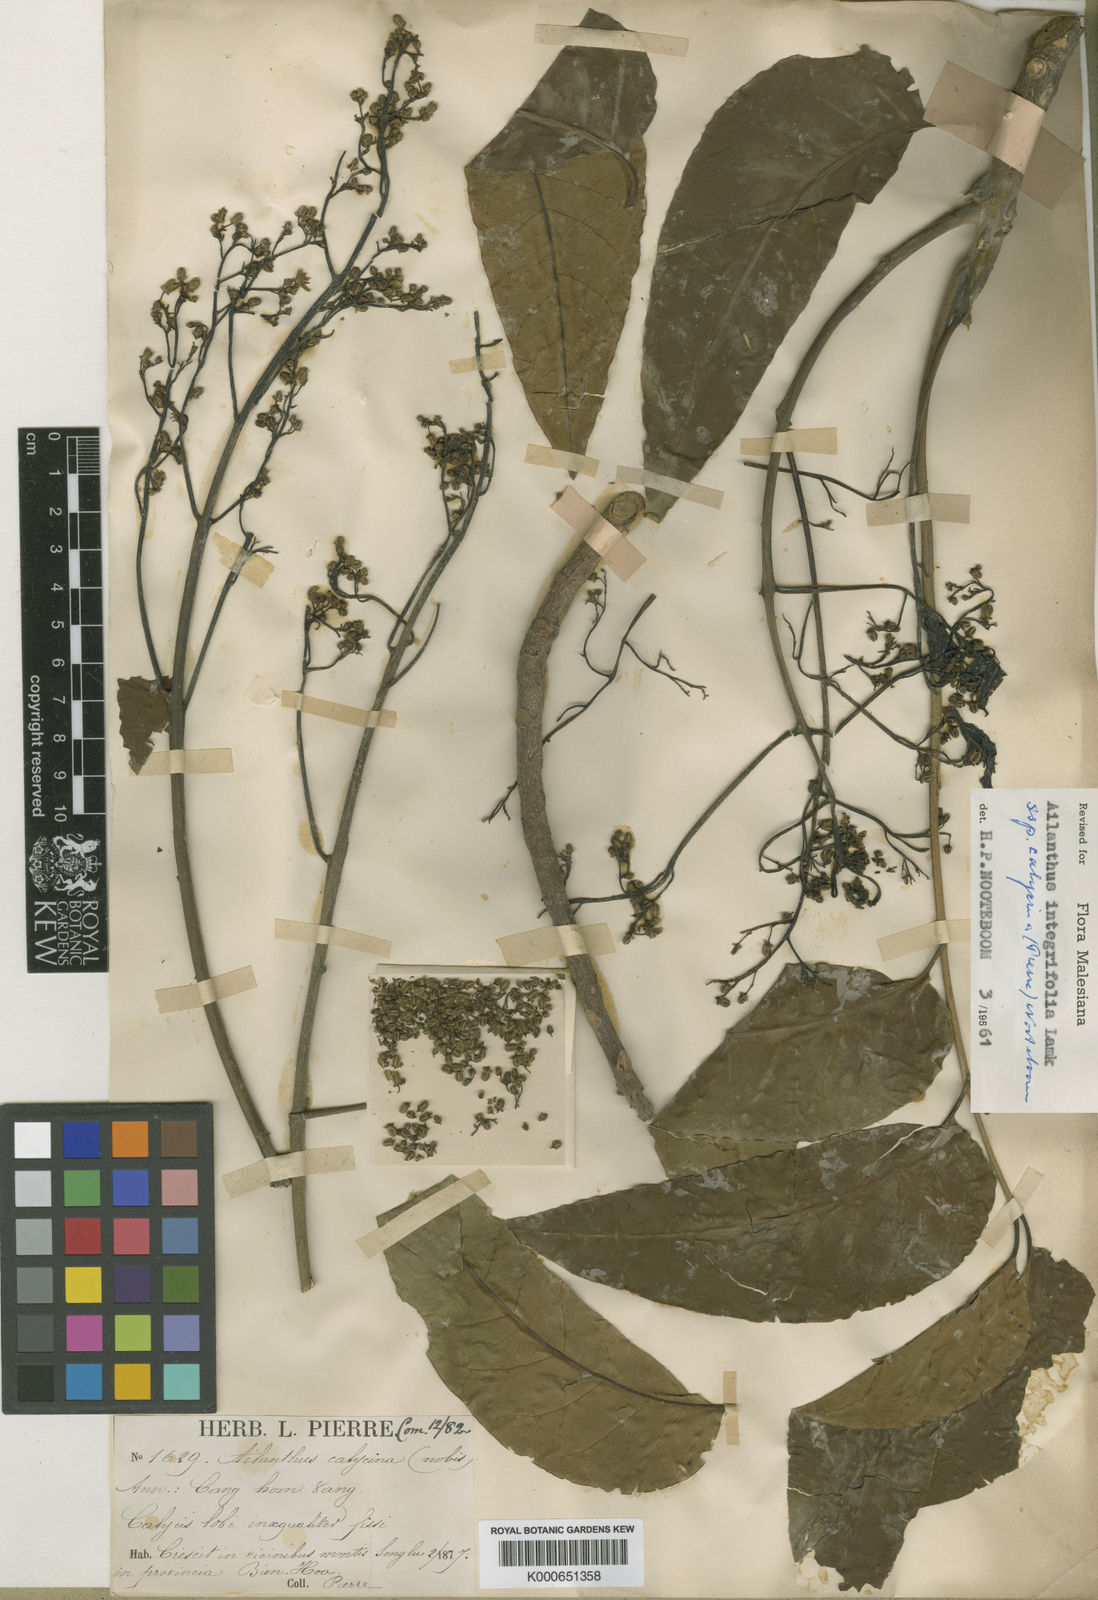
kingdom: Plantae
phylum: Tracheophyta
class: Magnoliopsida
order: Sapindales
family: Simaroubaceae
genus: Ailanthus
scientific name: Ailanthus integrifolia
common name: White siris
